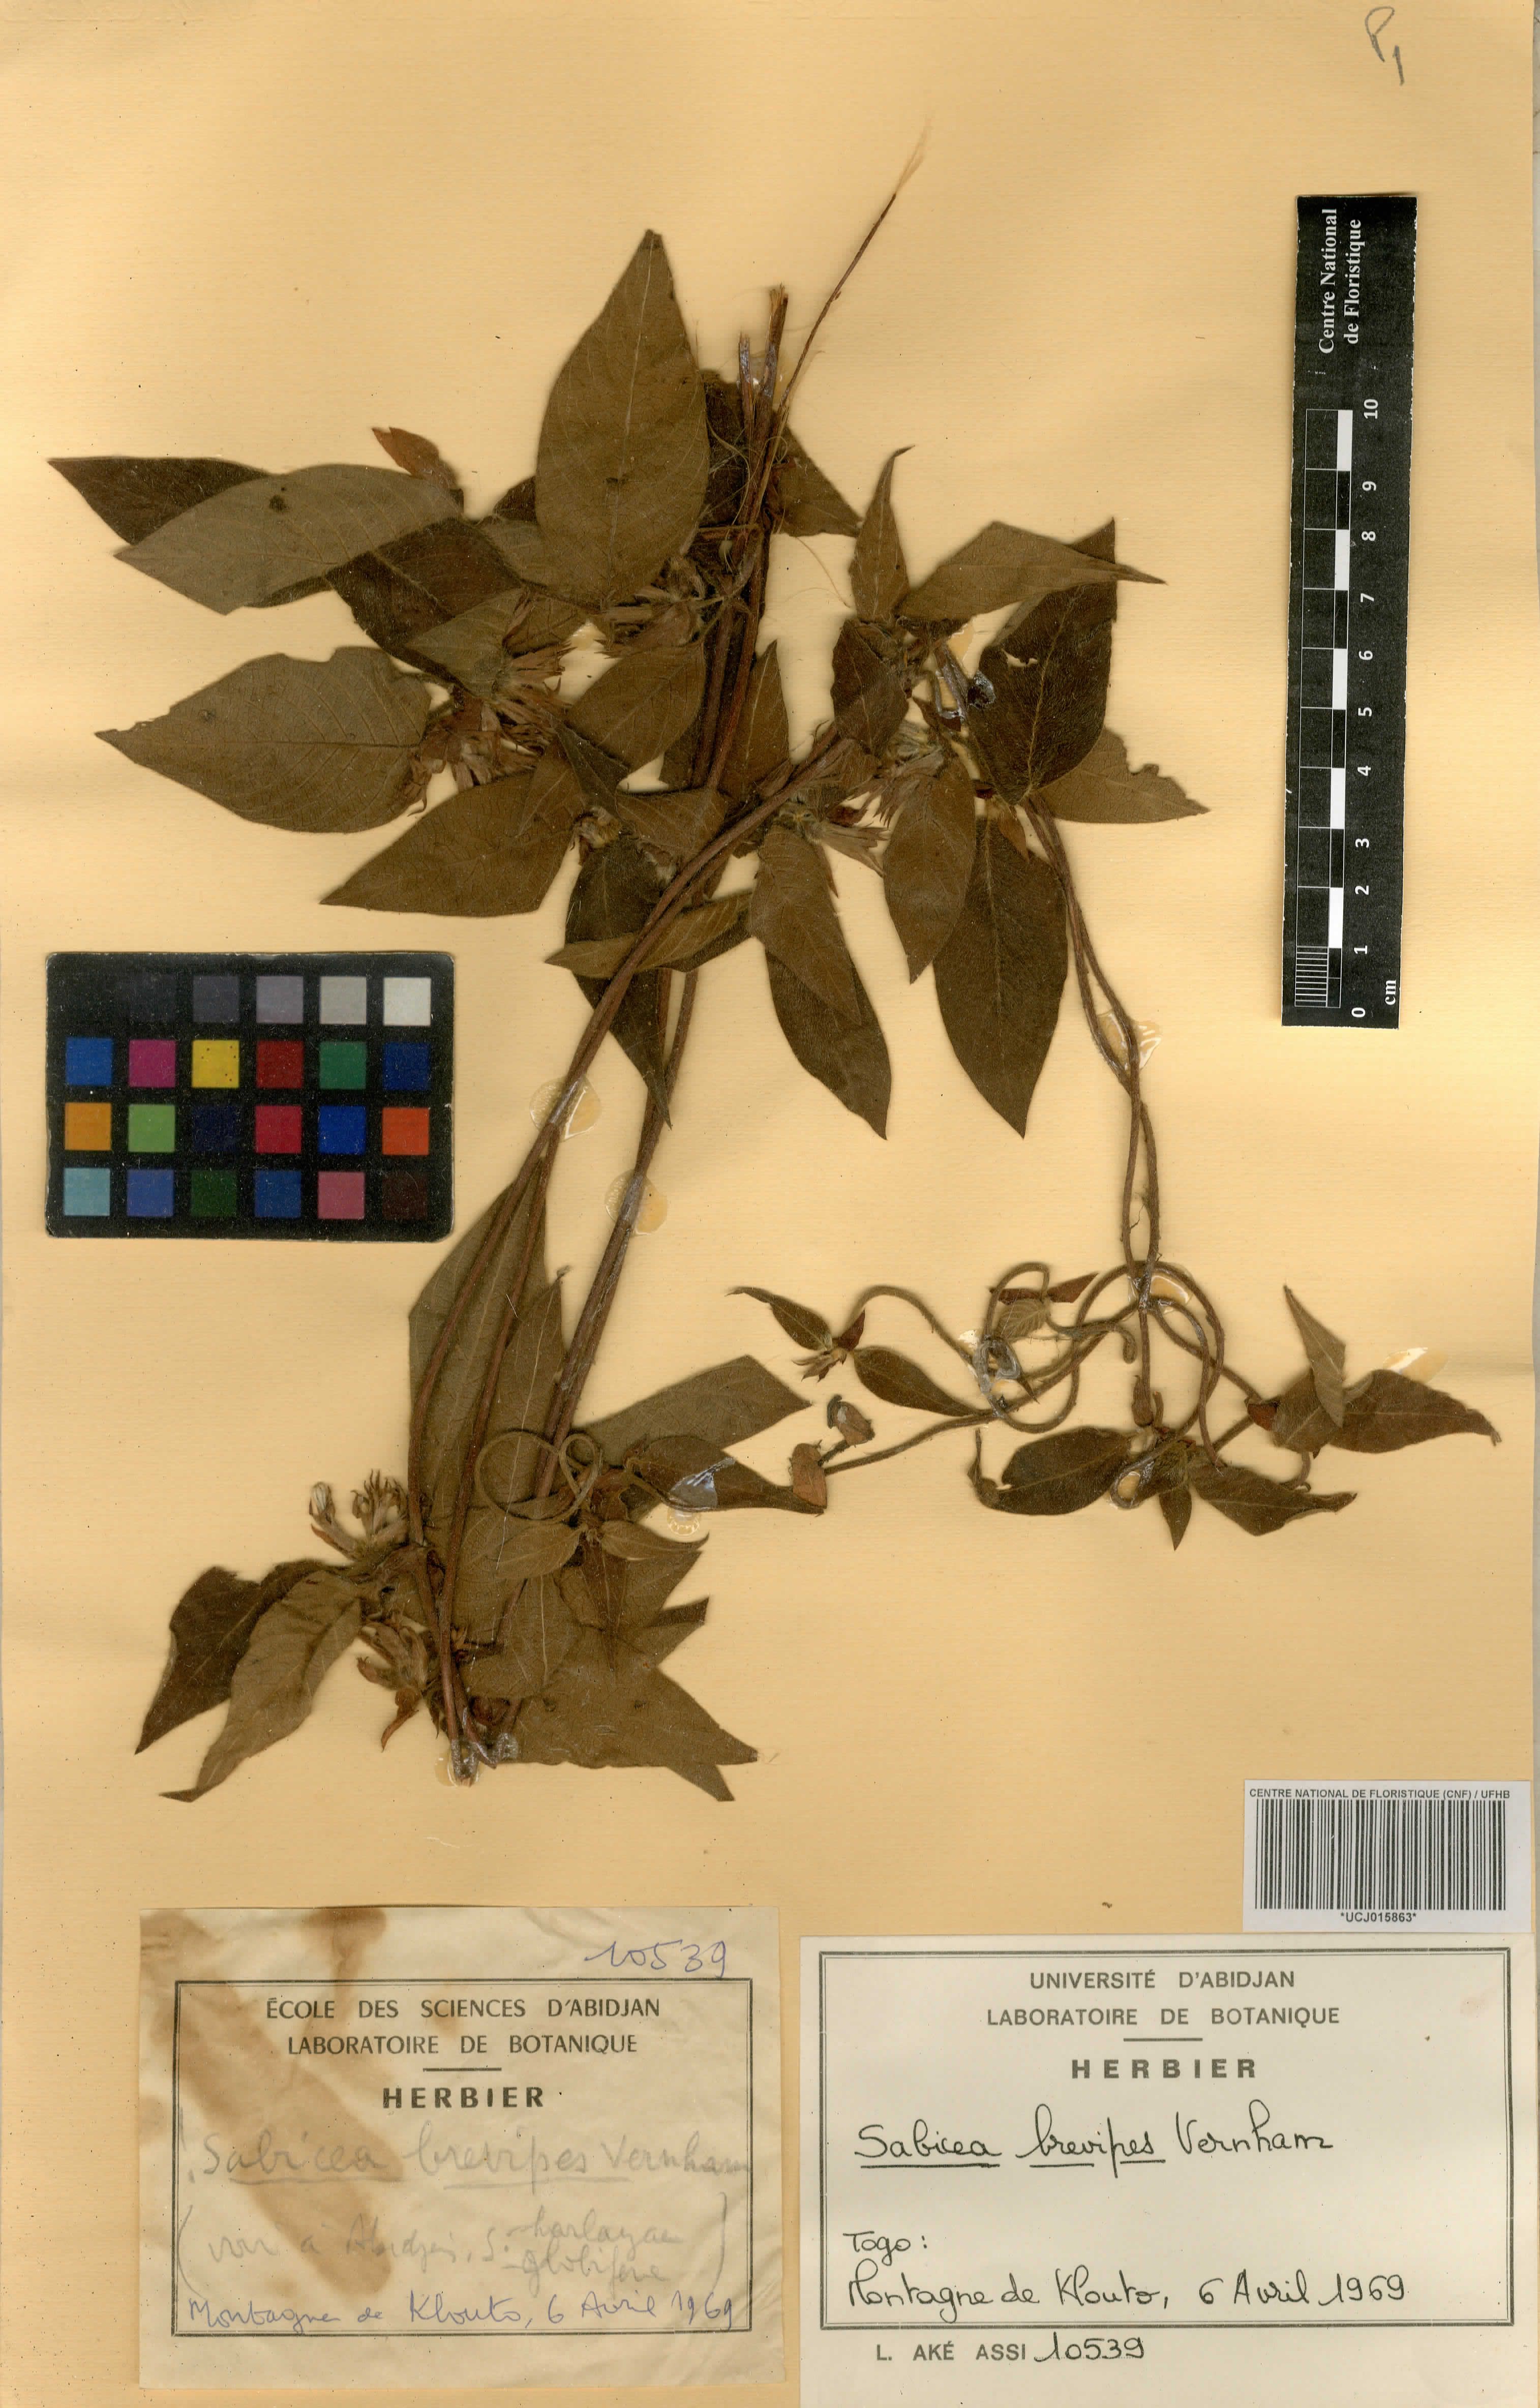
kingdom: Plantae
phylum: Tracheophyta
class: Magnoliopsida
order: Gentianales
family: Rubiaceae
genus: Sabicea
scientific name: Sabicea brevipes
